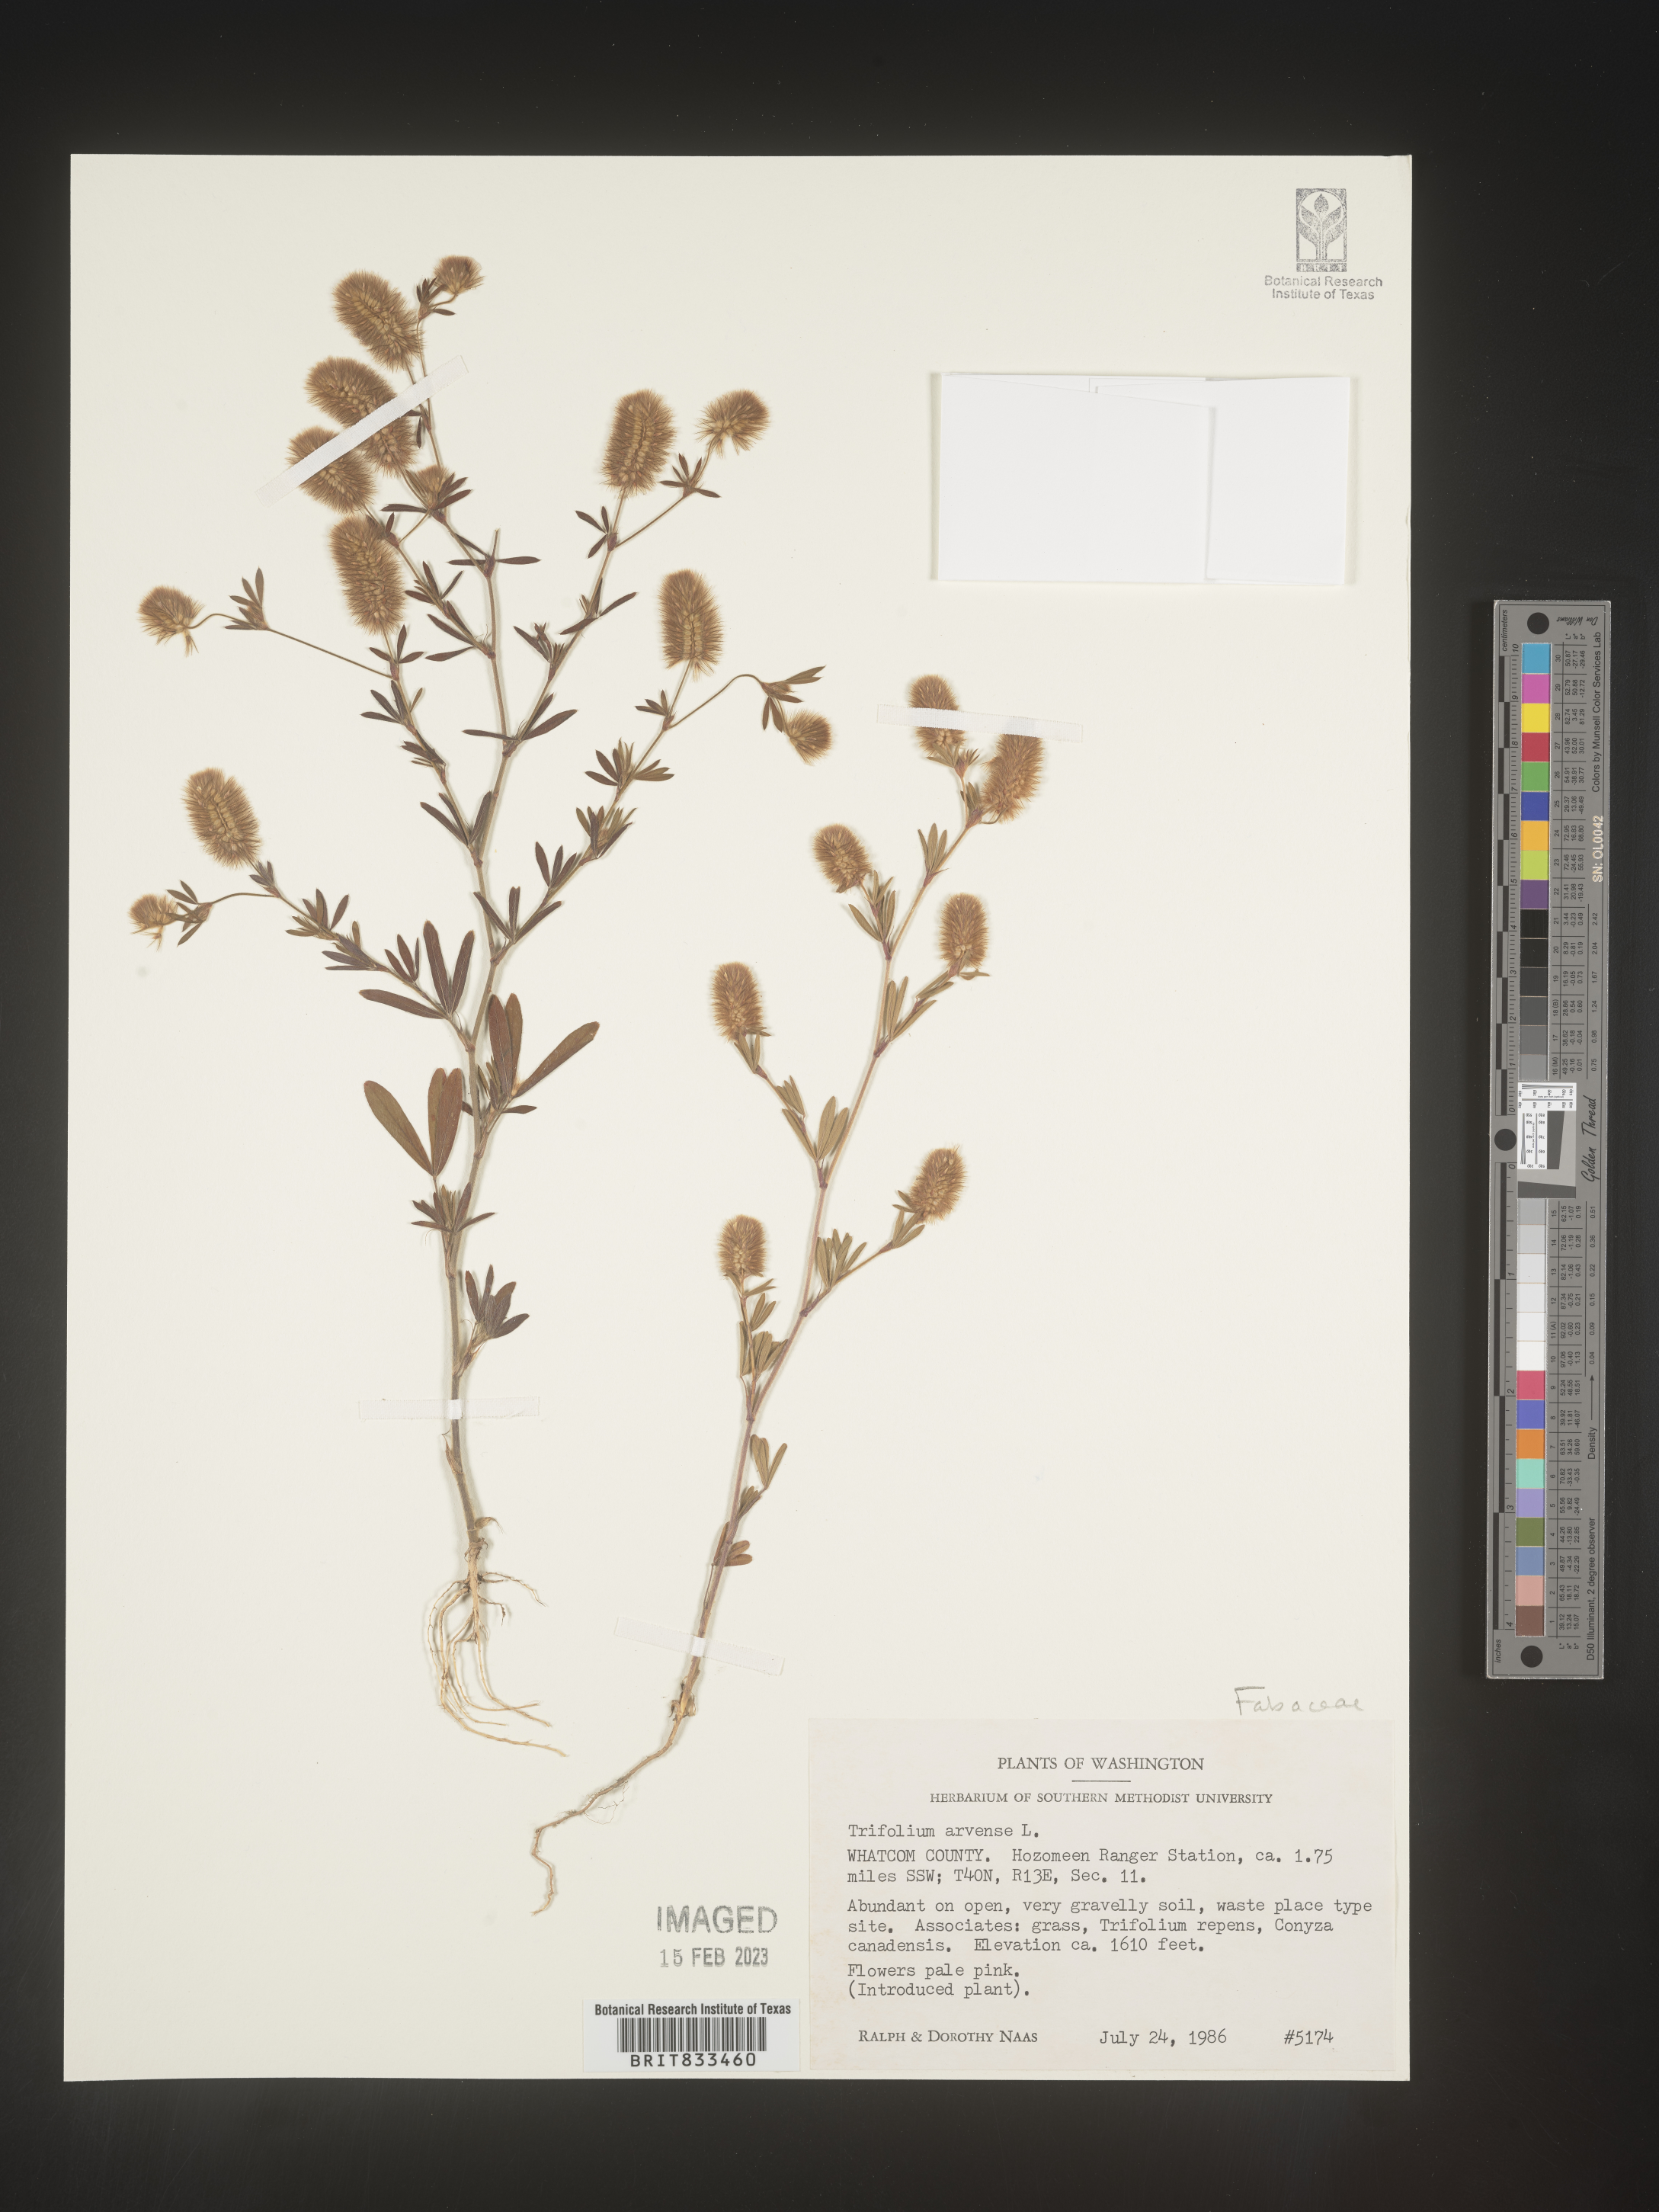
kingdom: Plantae
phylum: Tracheophyta
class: Magnoliopsida
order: Fabales
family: Fabaceae
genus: Trifolium
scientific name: Trifolium arvense
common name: Hare's-foot clover
